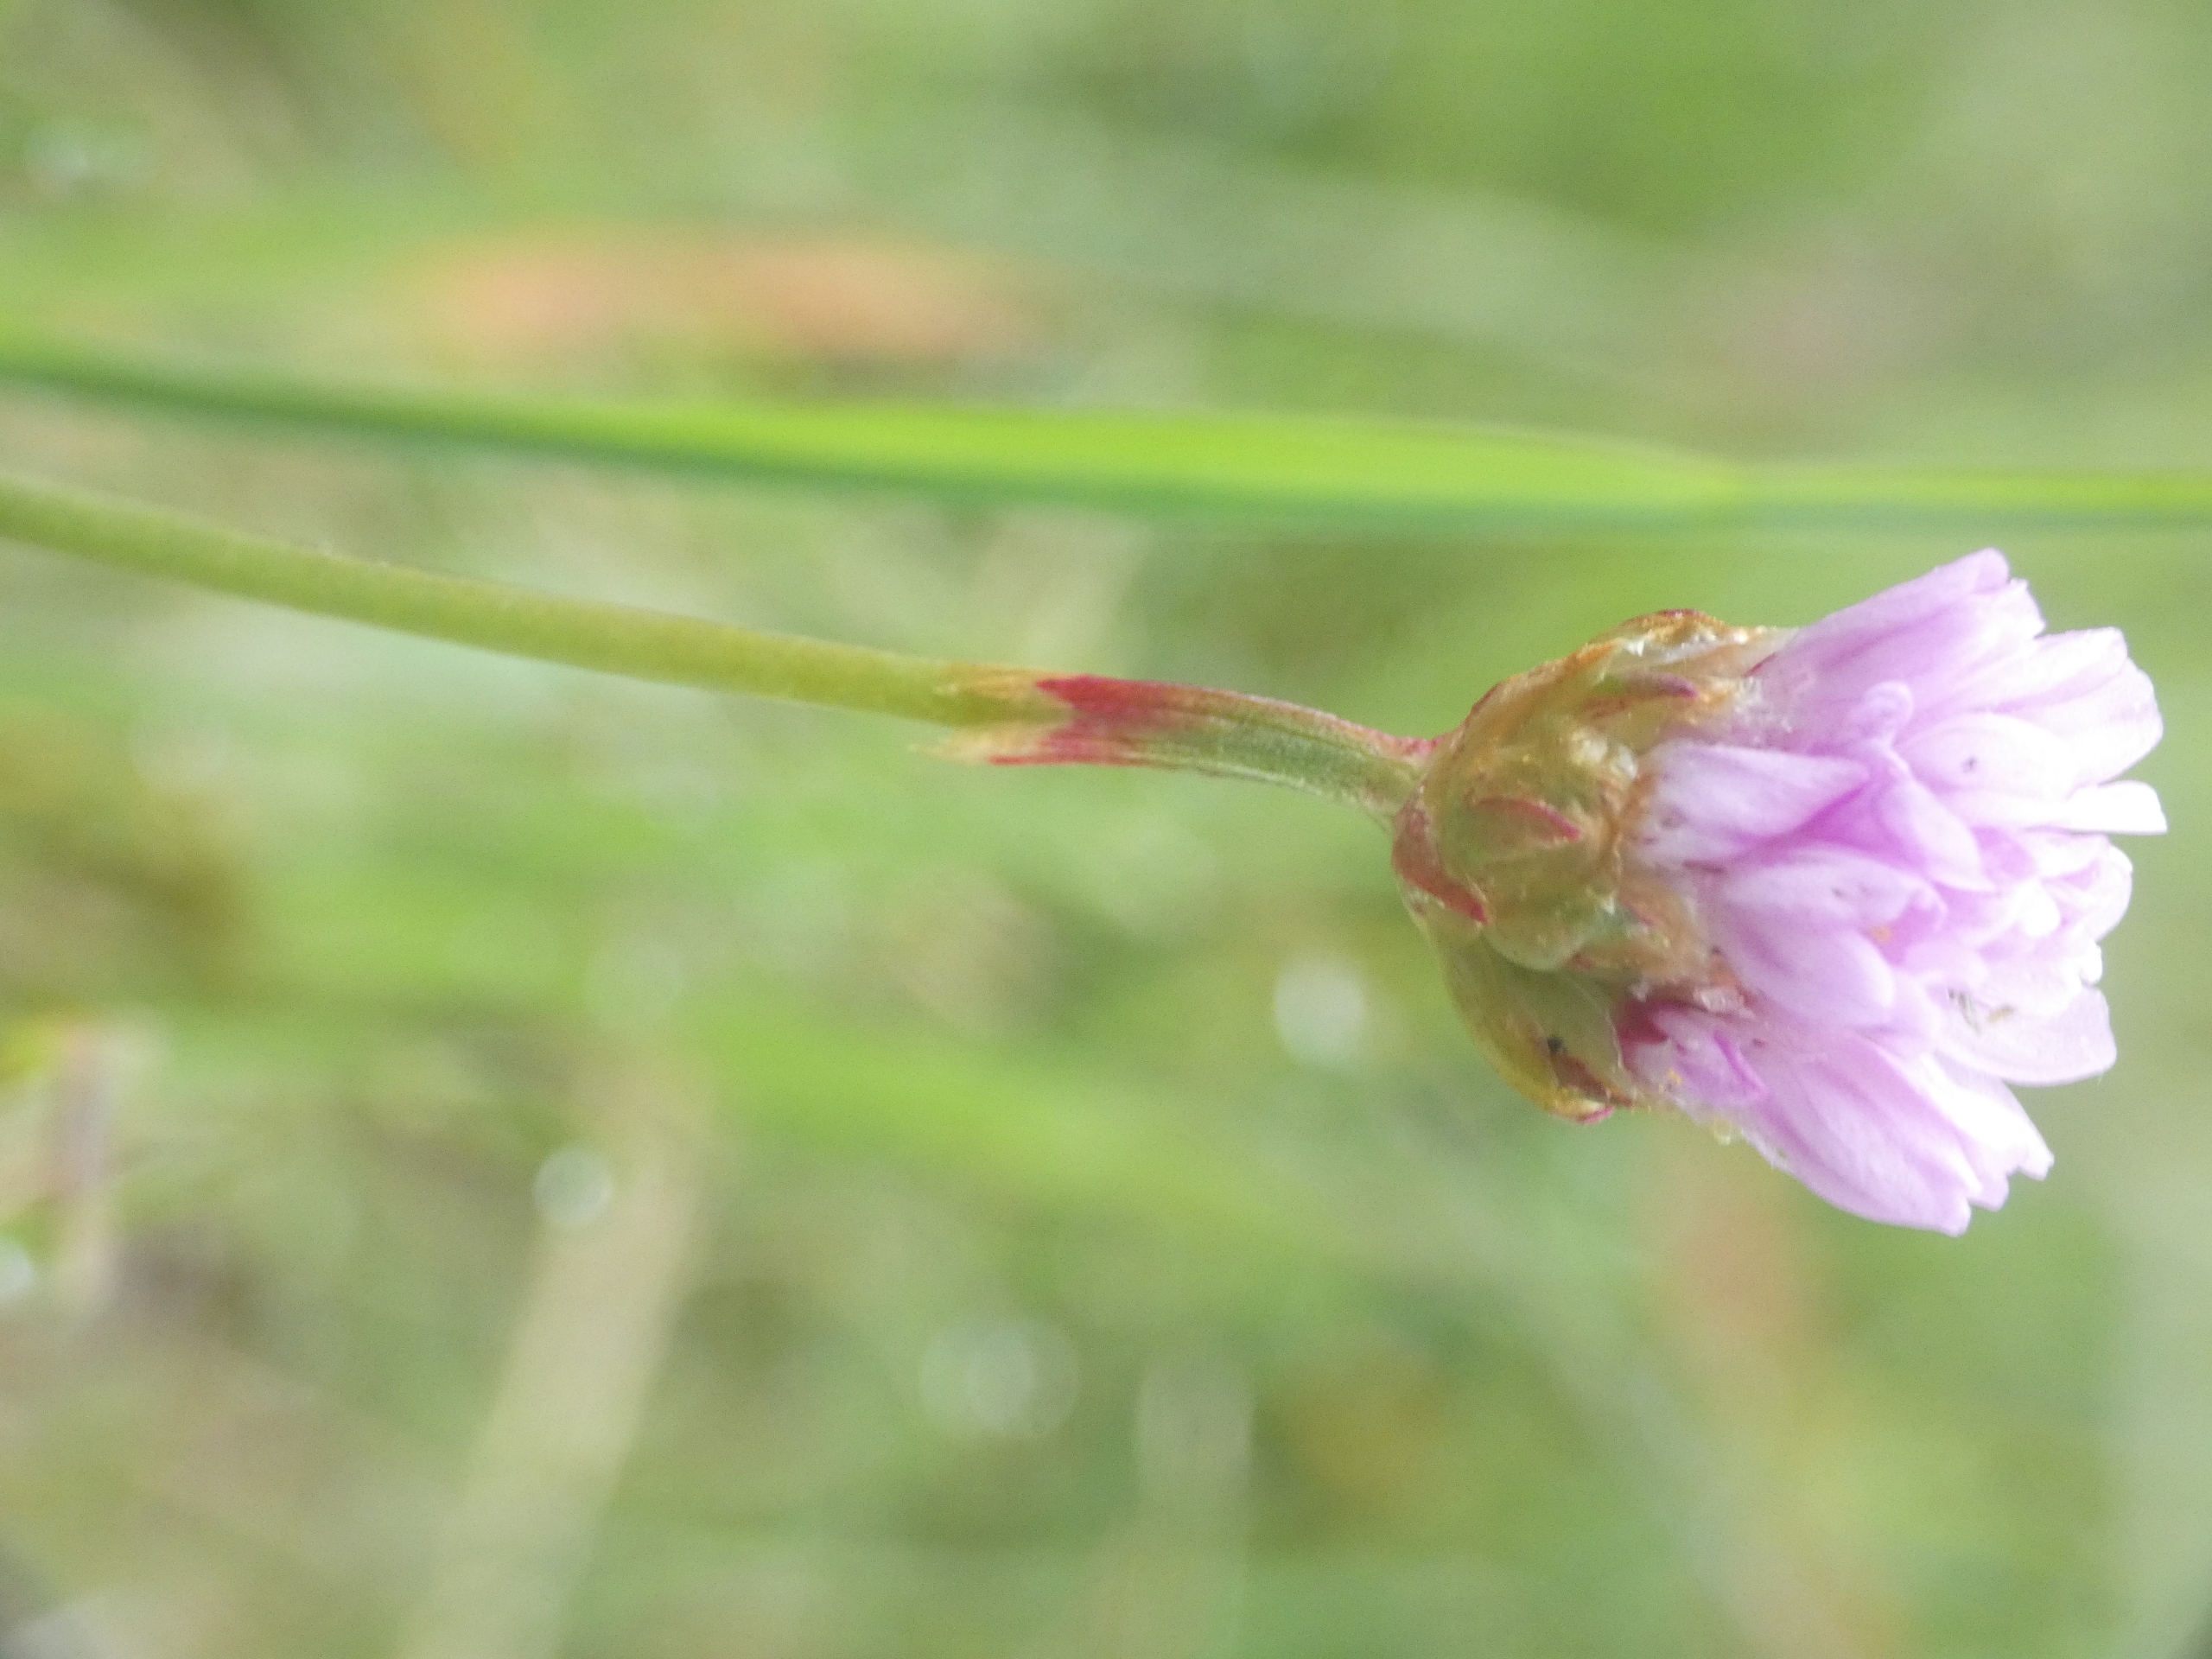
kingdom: Plantae
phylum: Tracheophyta
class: Magnoliopsida
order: Caryophyllales
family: Plumbaginaceae
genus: Armeria
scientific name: Armeria maritima
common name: Engelskgræs
